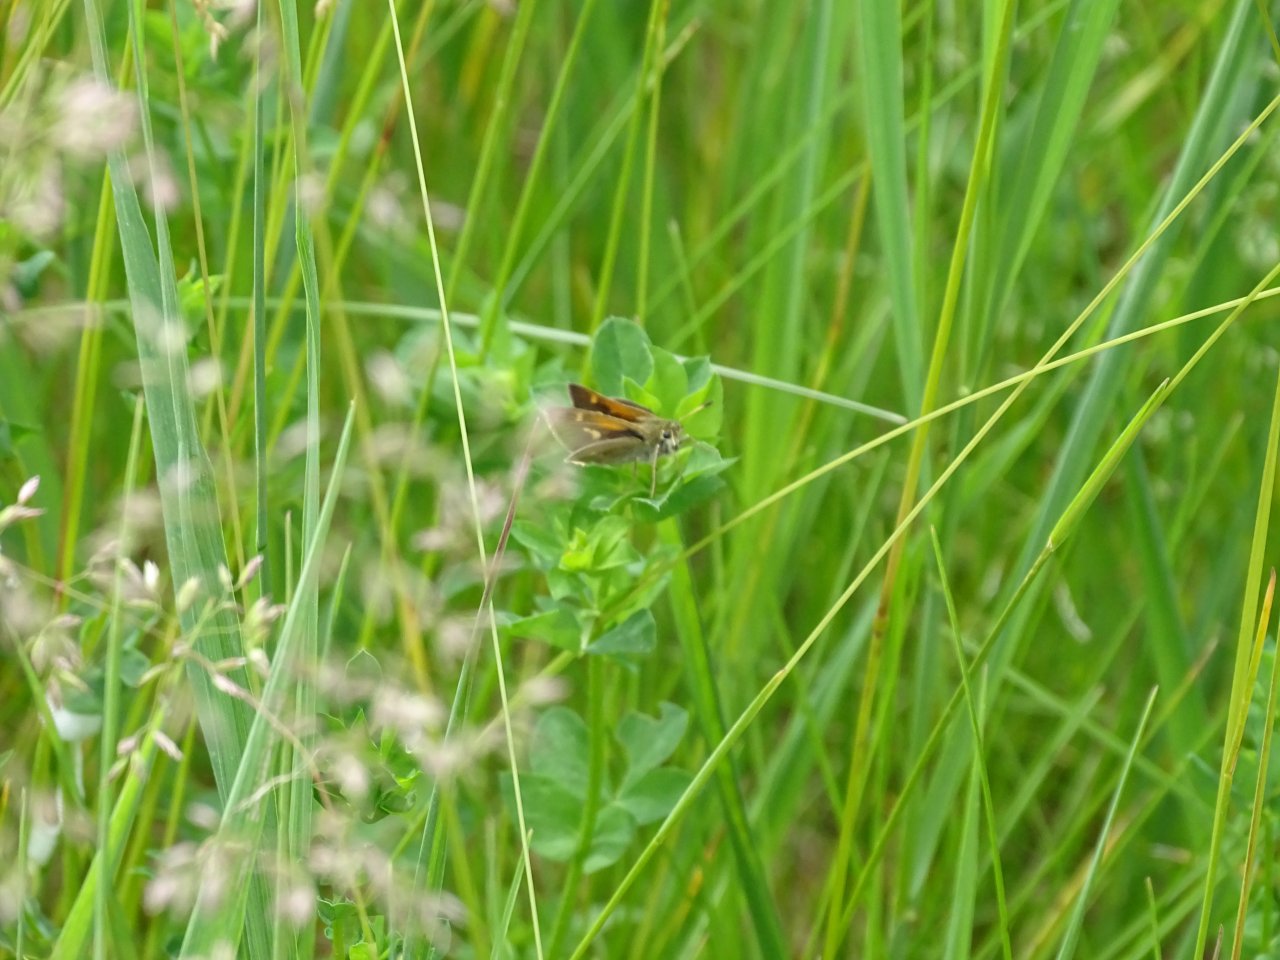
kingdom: Animalia
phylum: Arthropoda
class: Insecta
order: Lepidoptera
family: Hesperiidae
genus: Polites
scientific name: Polites themistocles
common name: Tawny-edged Skipper
